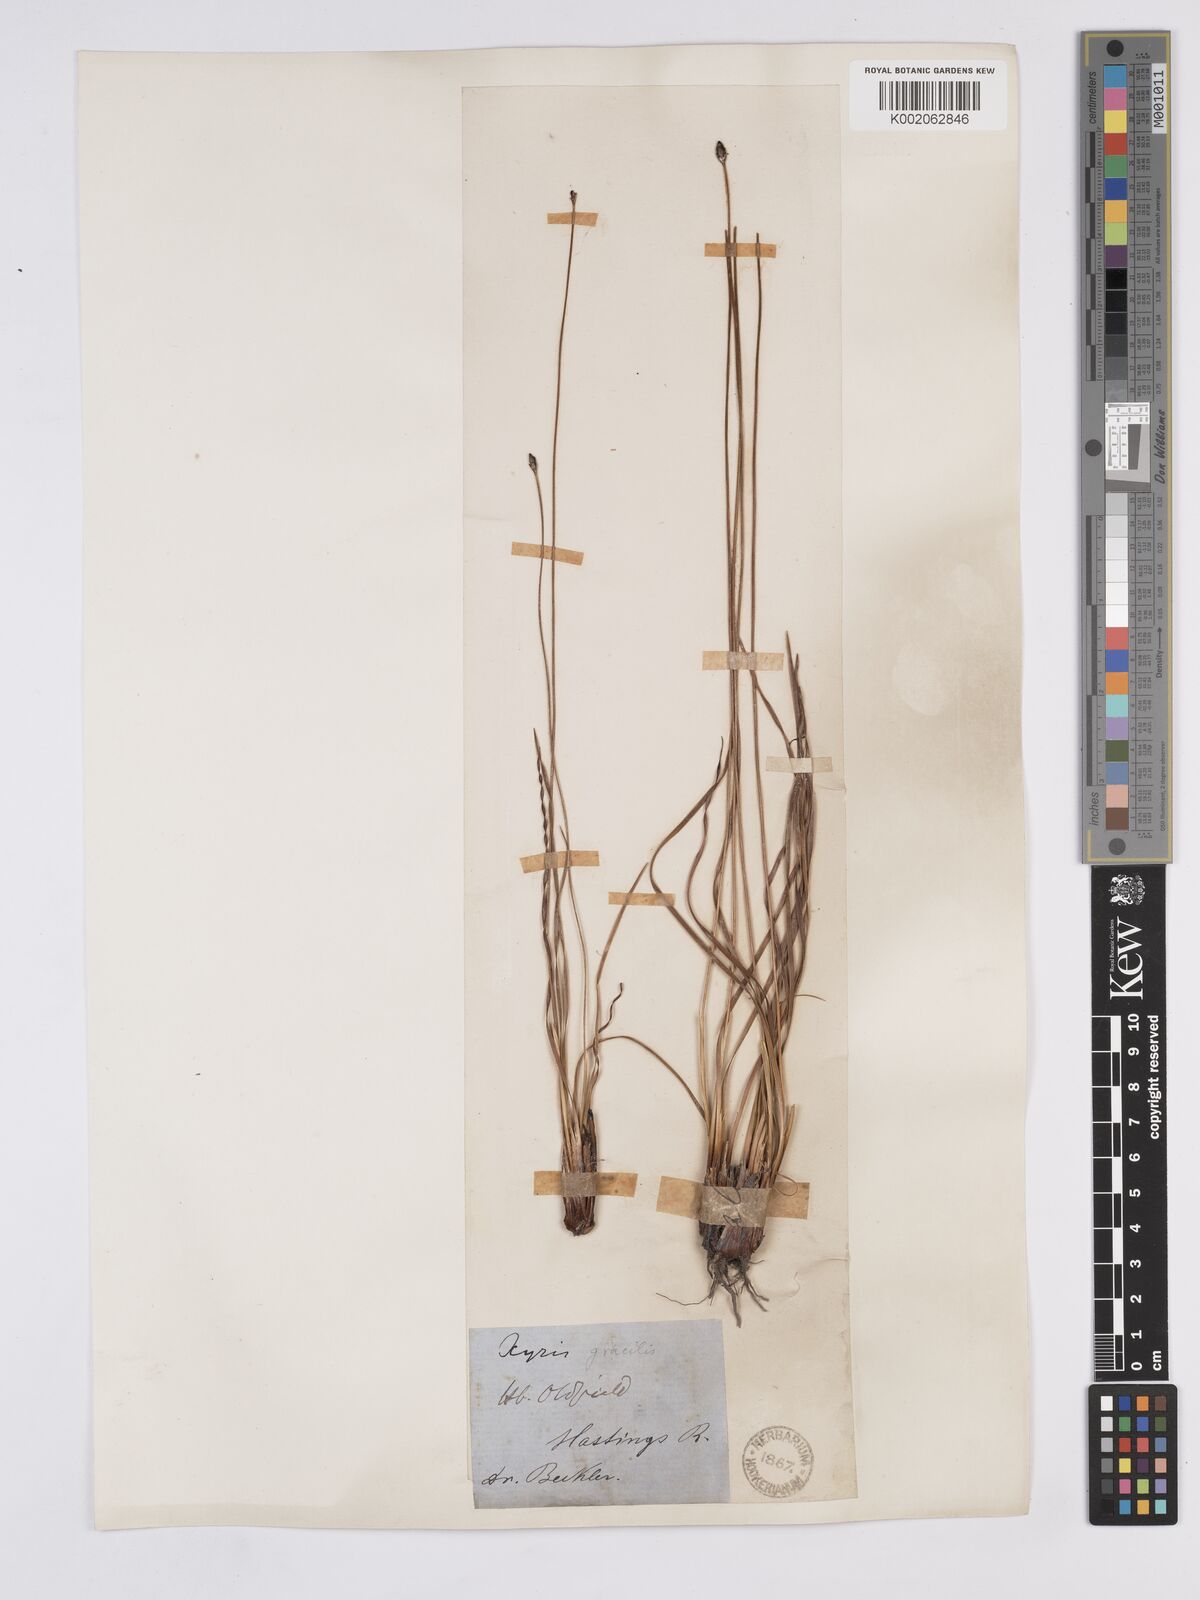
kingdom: Plantae
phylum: Tracheophyta
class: Liliopsida
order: Poales
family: Xyridaceae
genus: Xyris
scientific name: Xyris gracilis
